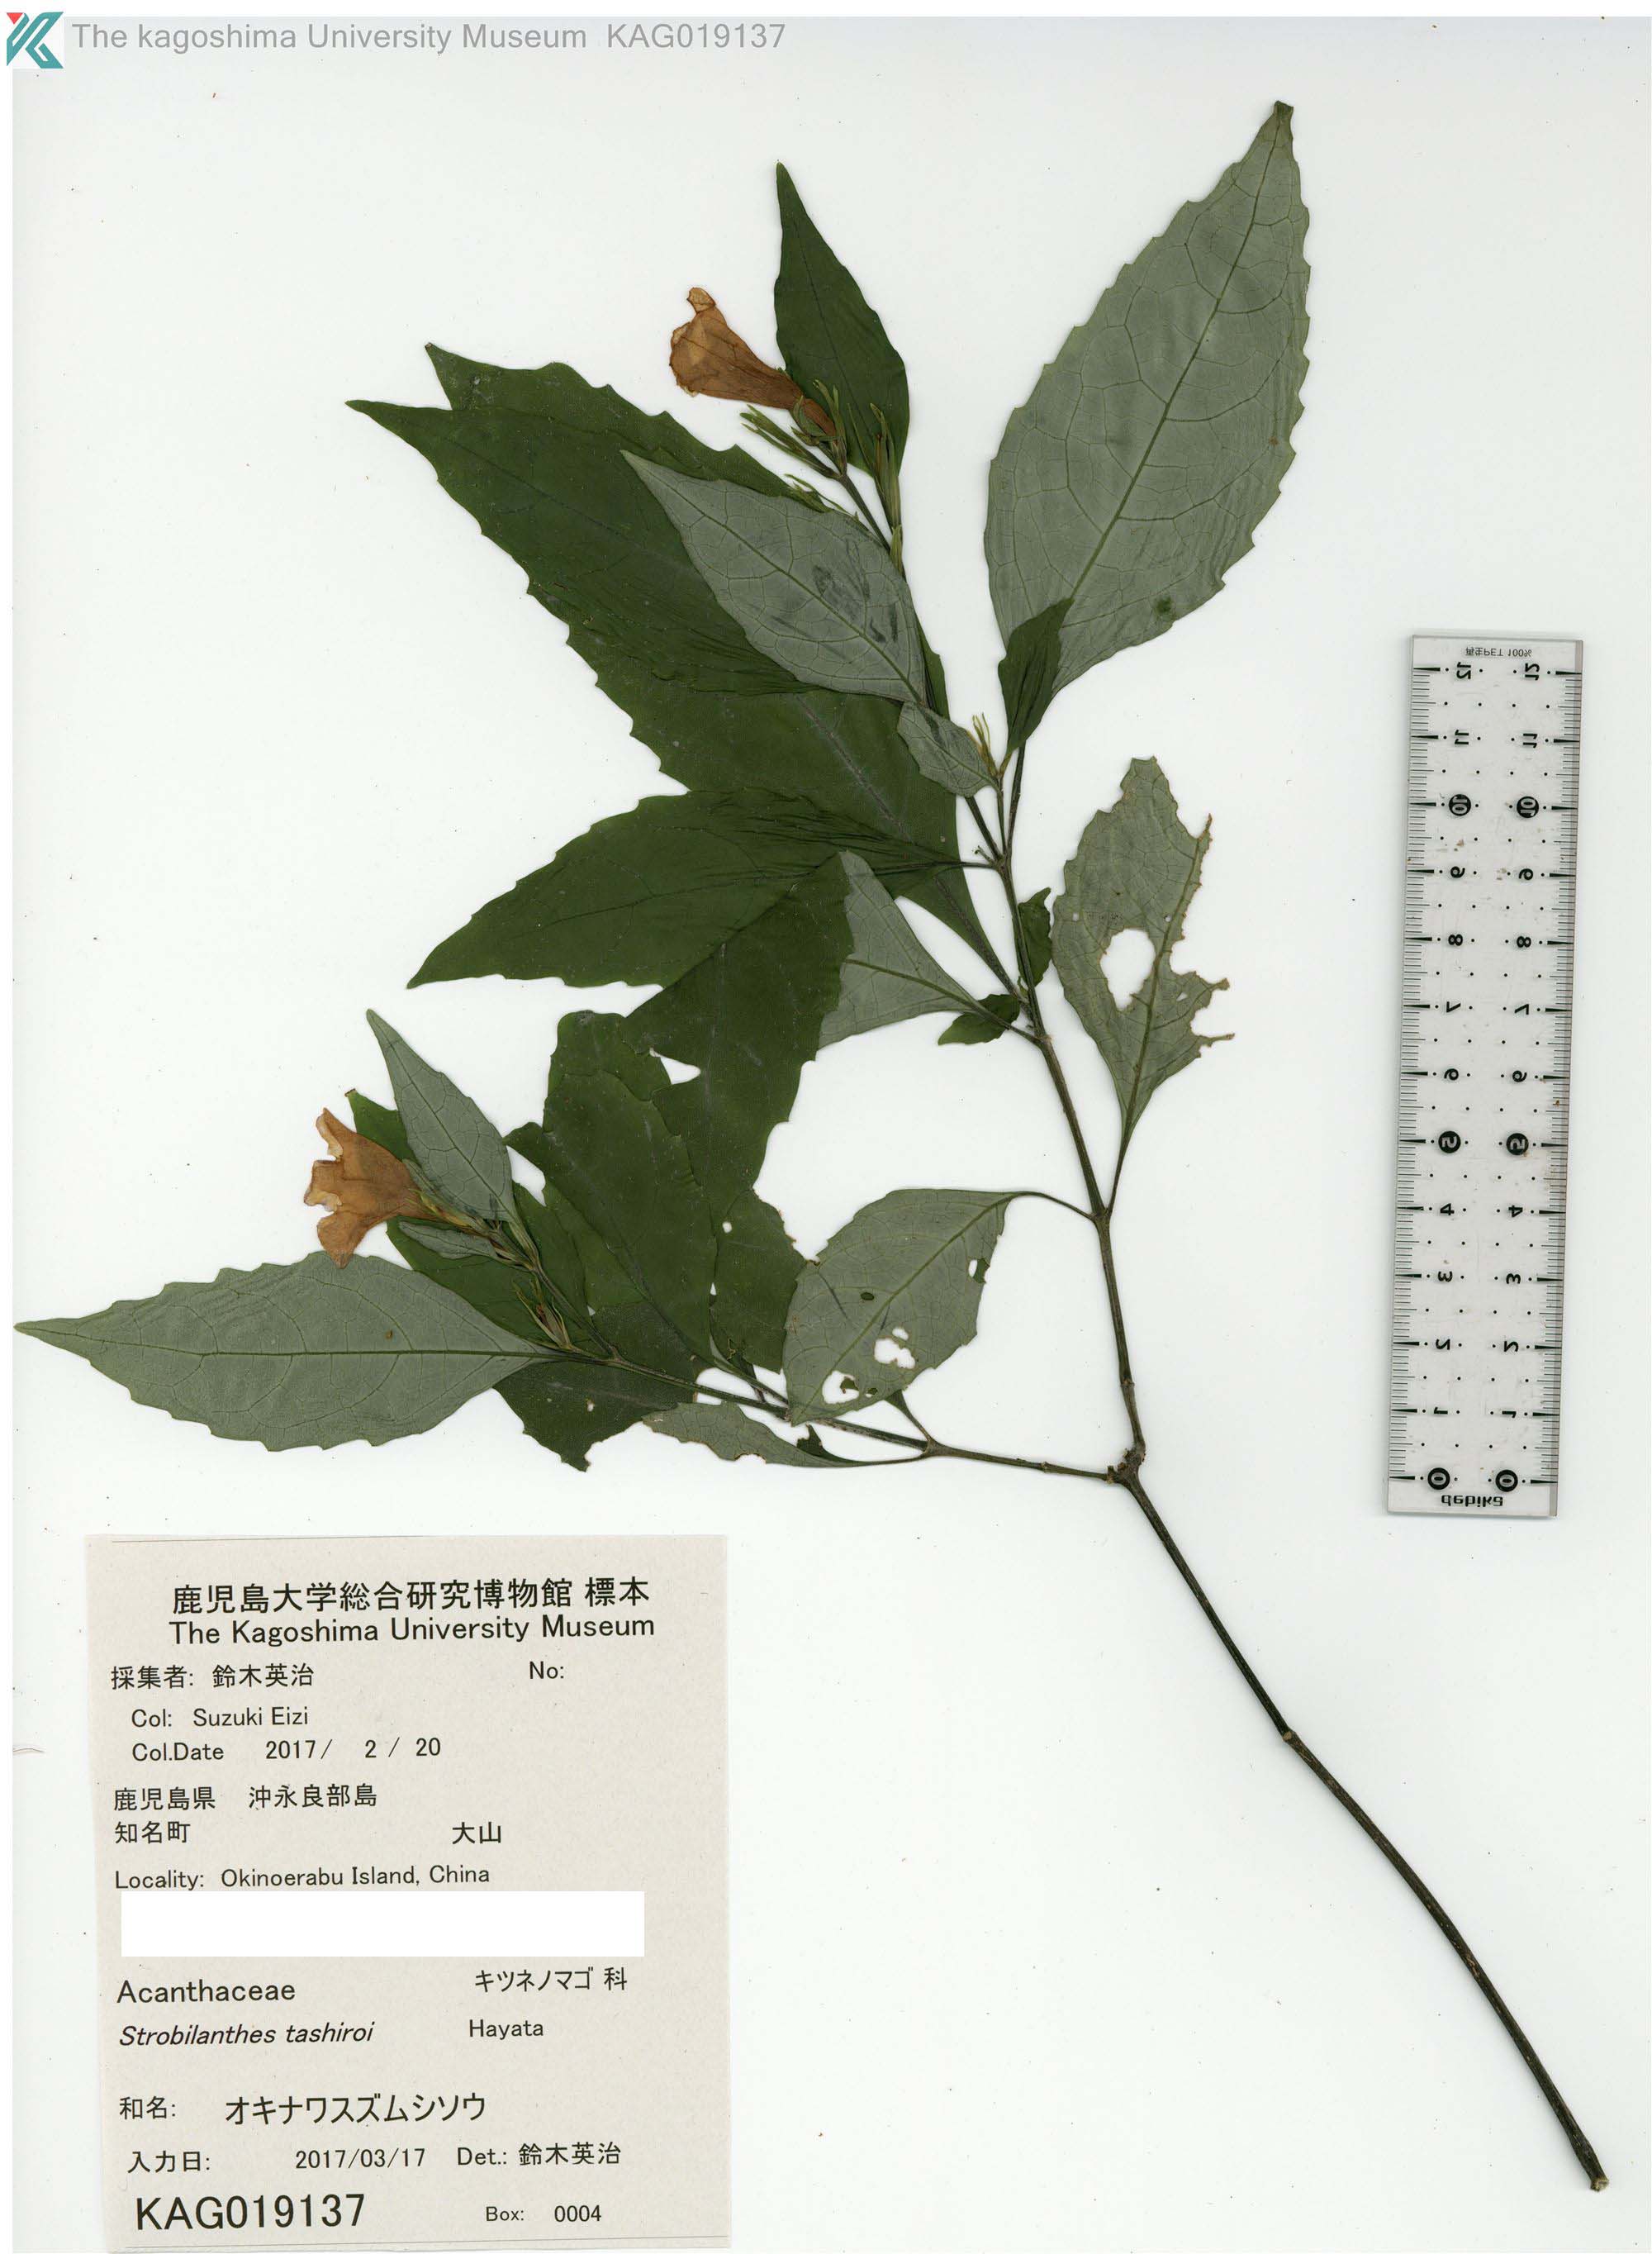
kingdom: Plantae
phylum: Tracheophyta
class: Magnoliopsida
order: Lamiales
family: Acanthaceae
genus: Strobilanthes
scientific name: Strobilanthes flexicaulis
